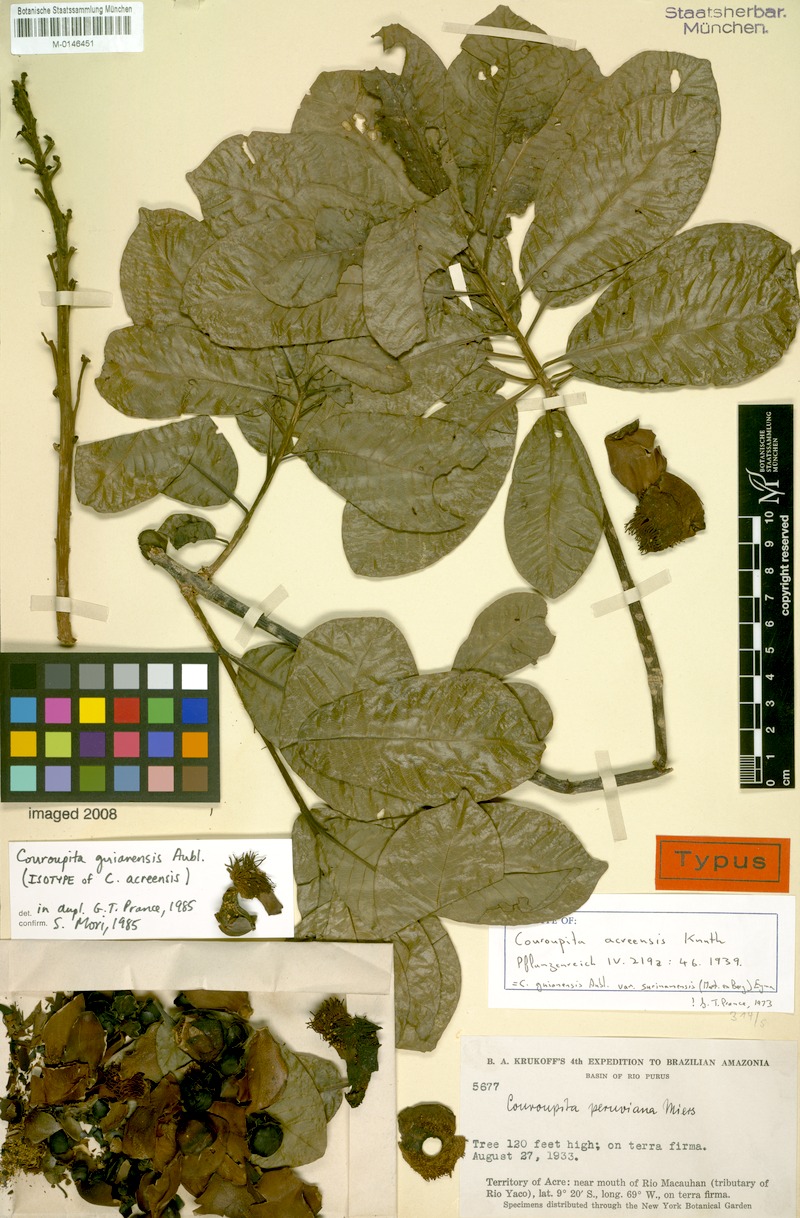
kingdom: Plantae
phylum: Tracheophyta
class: Magnoliopsida
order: Ericales
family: Lecythidaceae
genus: Couroupita
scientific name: Couroupita guianensis
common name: Cannonball tree
